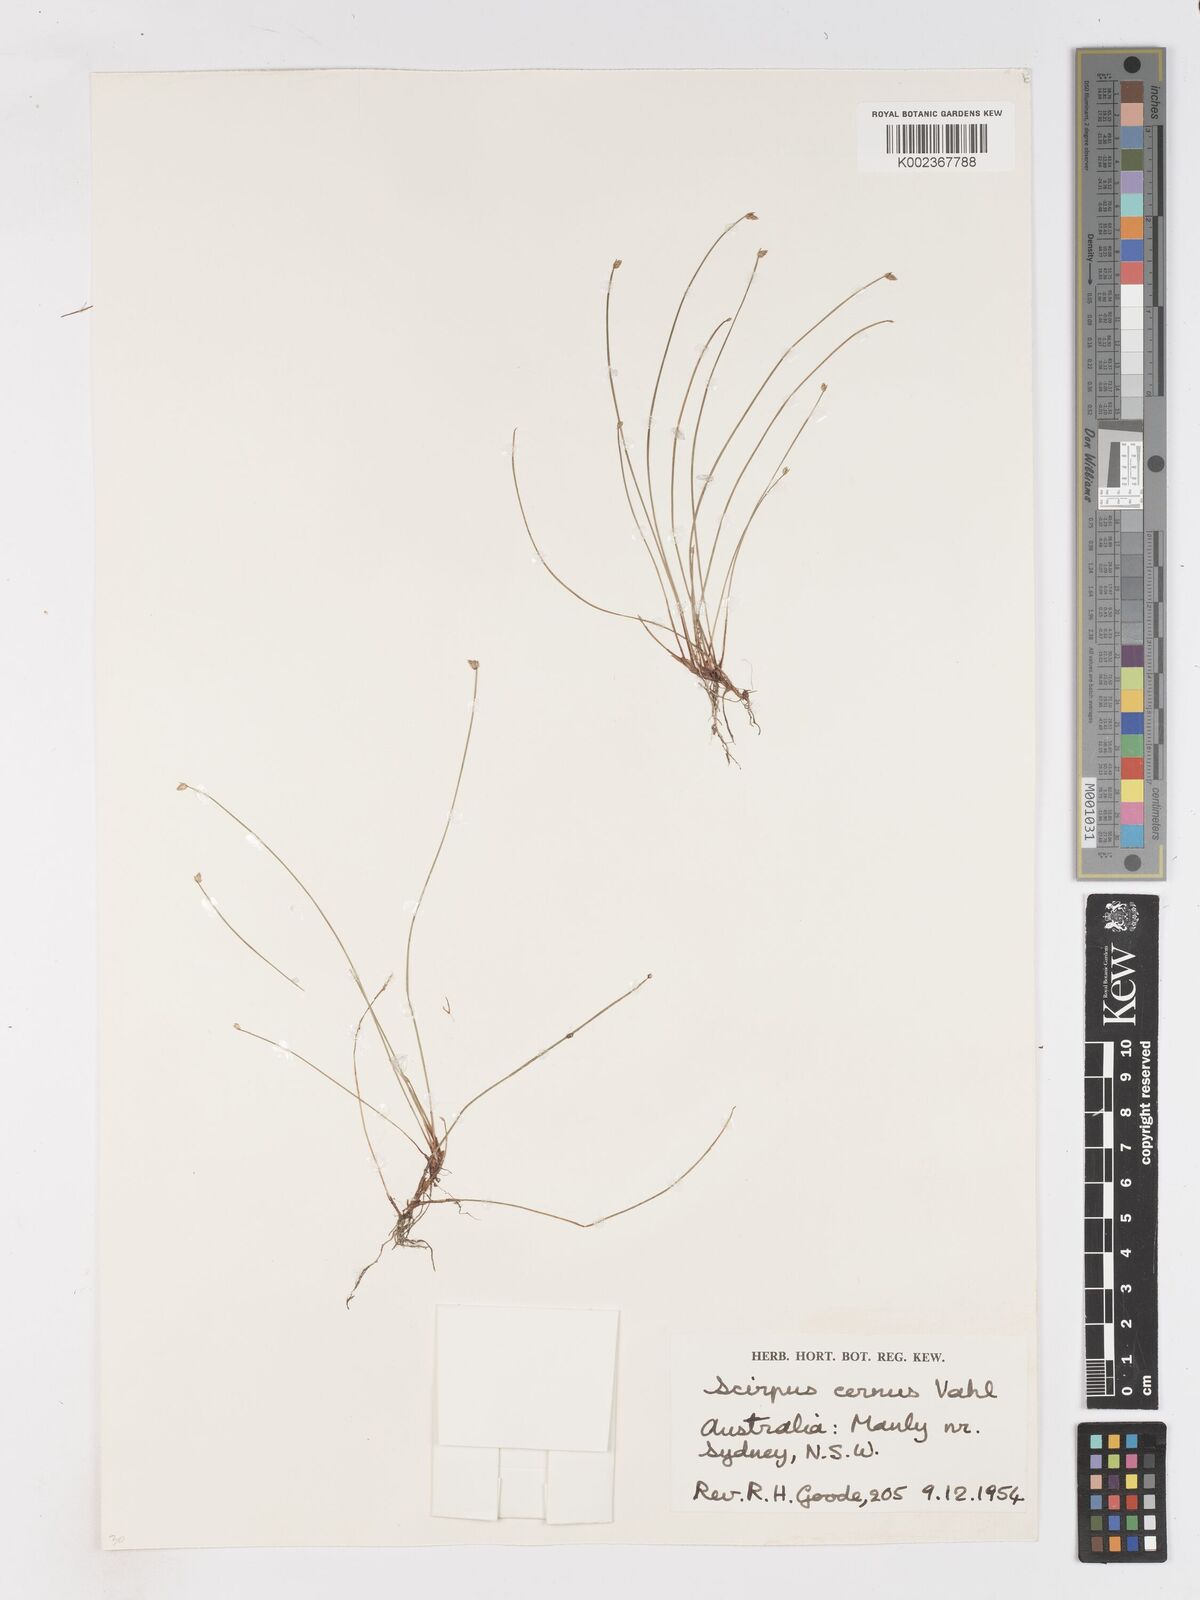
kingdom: Plantae
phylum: Tracheophyta
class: Liliopsida
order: Poales
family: Cyperaceae
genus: Isolepis
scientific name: Isolepis cernua
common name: Slender club-rush
